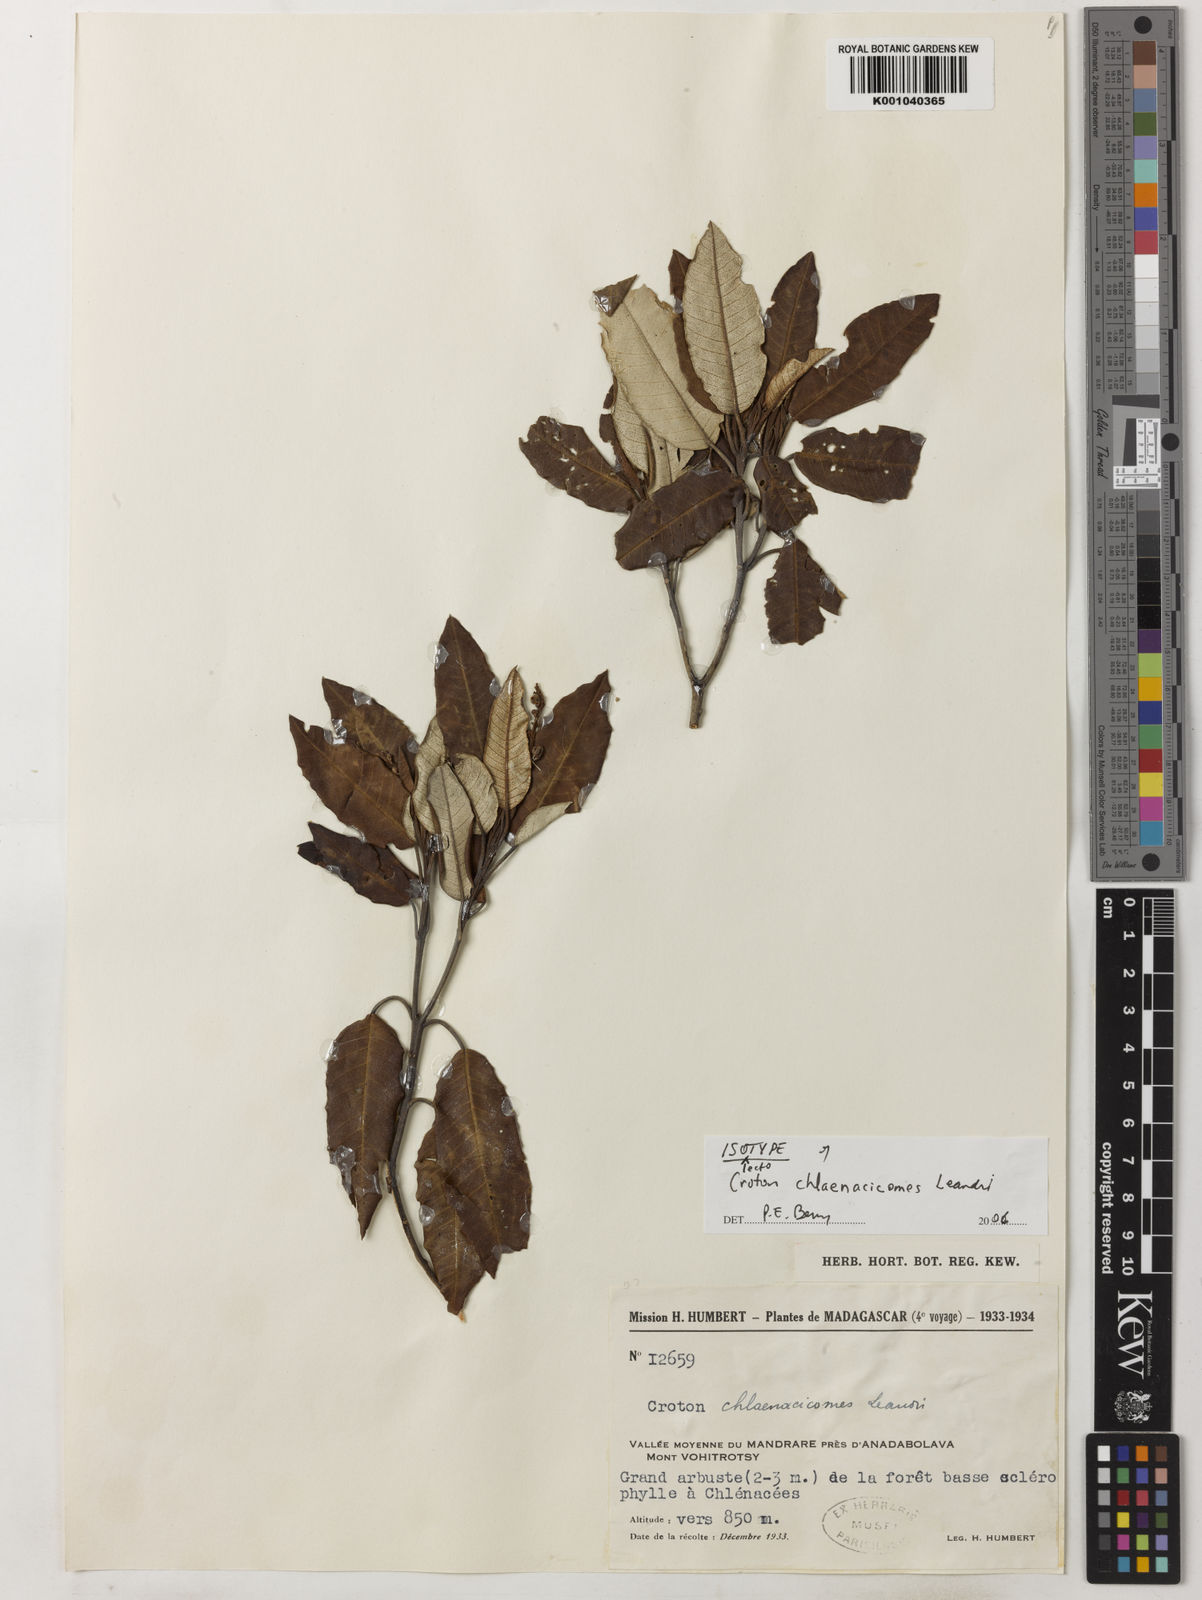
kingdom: Plantae
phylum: Tracheophyta
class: Magnoliopsida
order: Malpighiales
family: Euphorbiaceae
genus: Croton
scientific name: Croton chlaenacicomes
